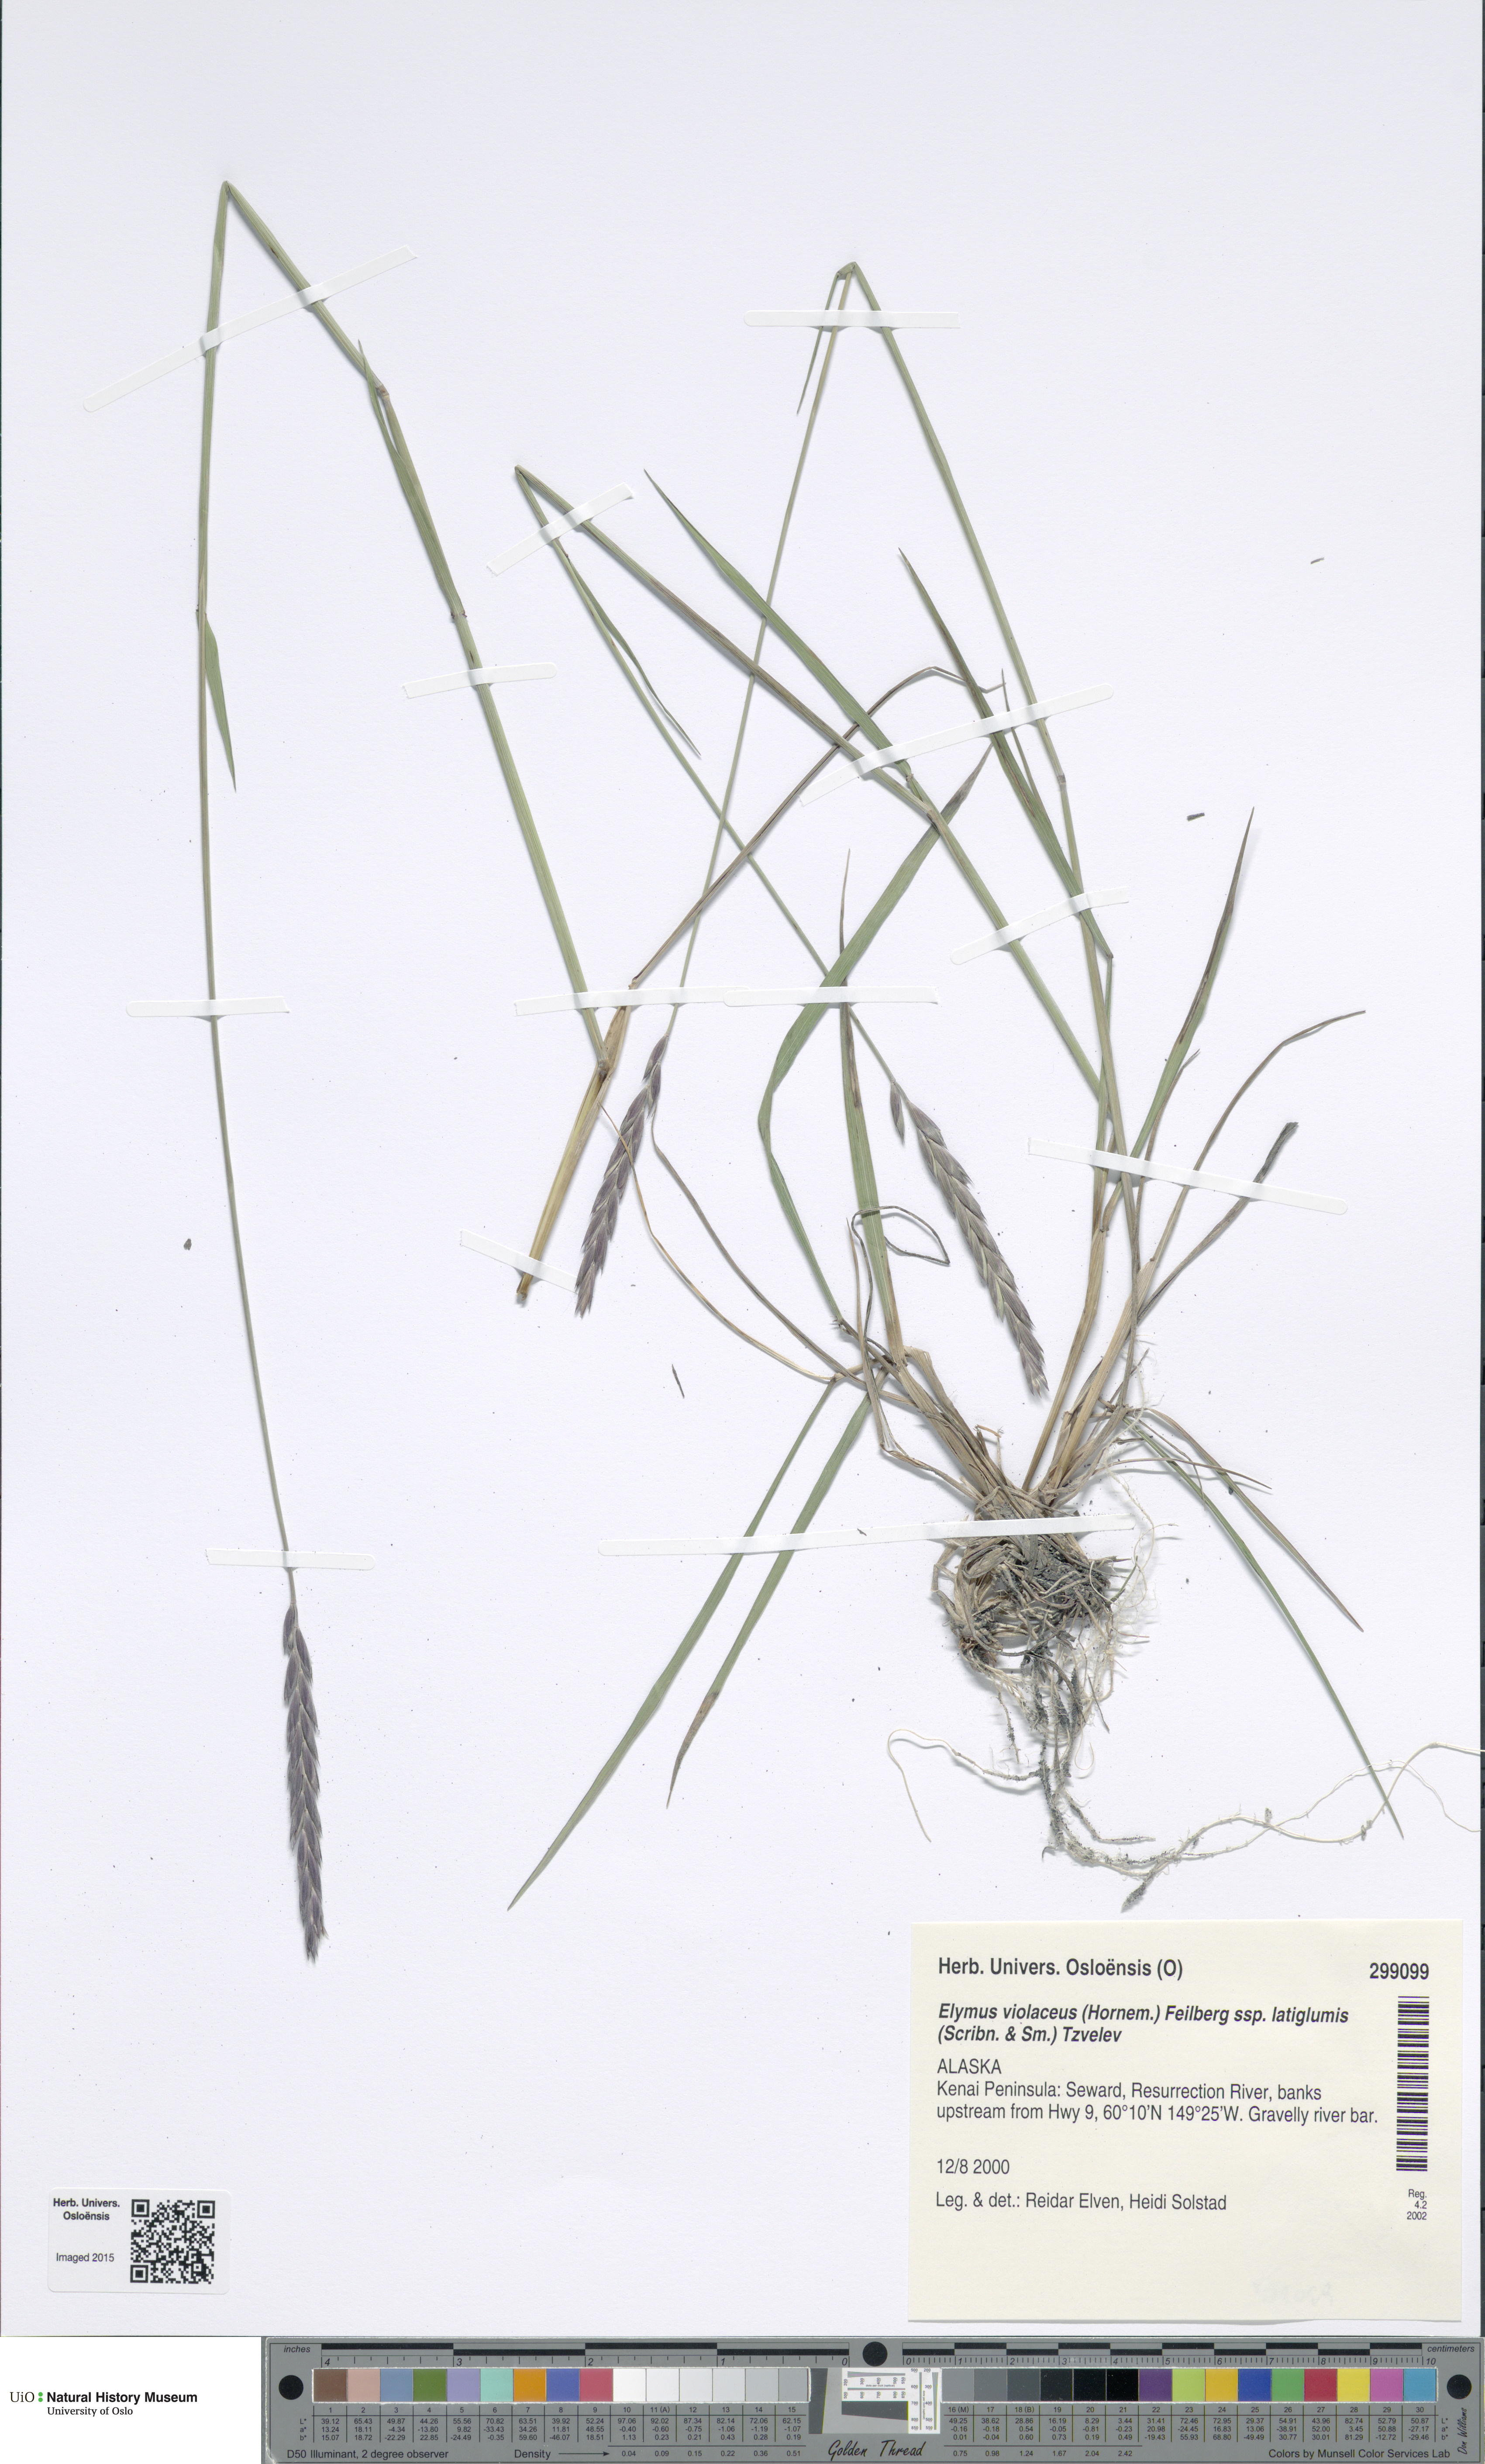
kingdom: Plantae
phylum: Tracheophyta
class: Liliopsida
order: Poales
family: Poaceae
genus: Elymus
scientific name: Elymus violaceus
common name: Arctic wheatgrass
